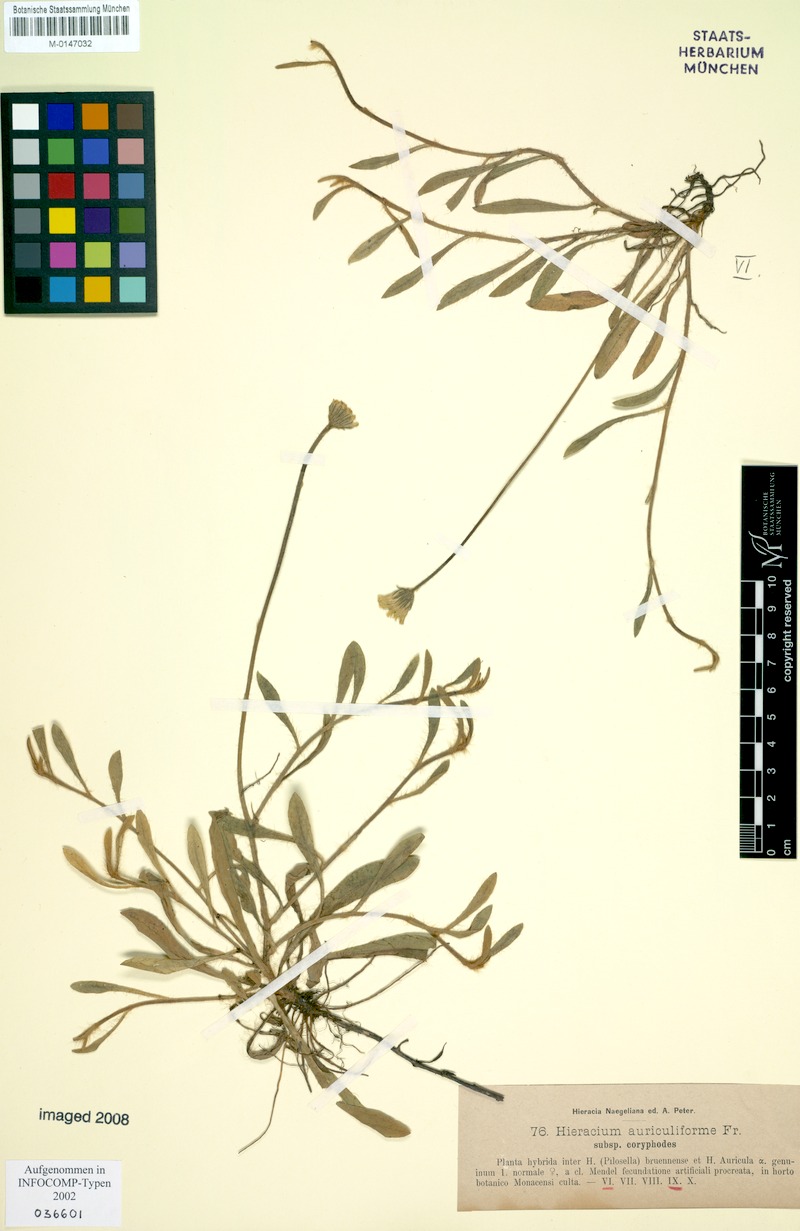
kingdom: Plantae
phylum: Tracheophyta
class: Magnoliopsida
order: Asterales
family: Asteraceae
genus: Pilosella
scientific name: Pilosella auriculiformis
